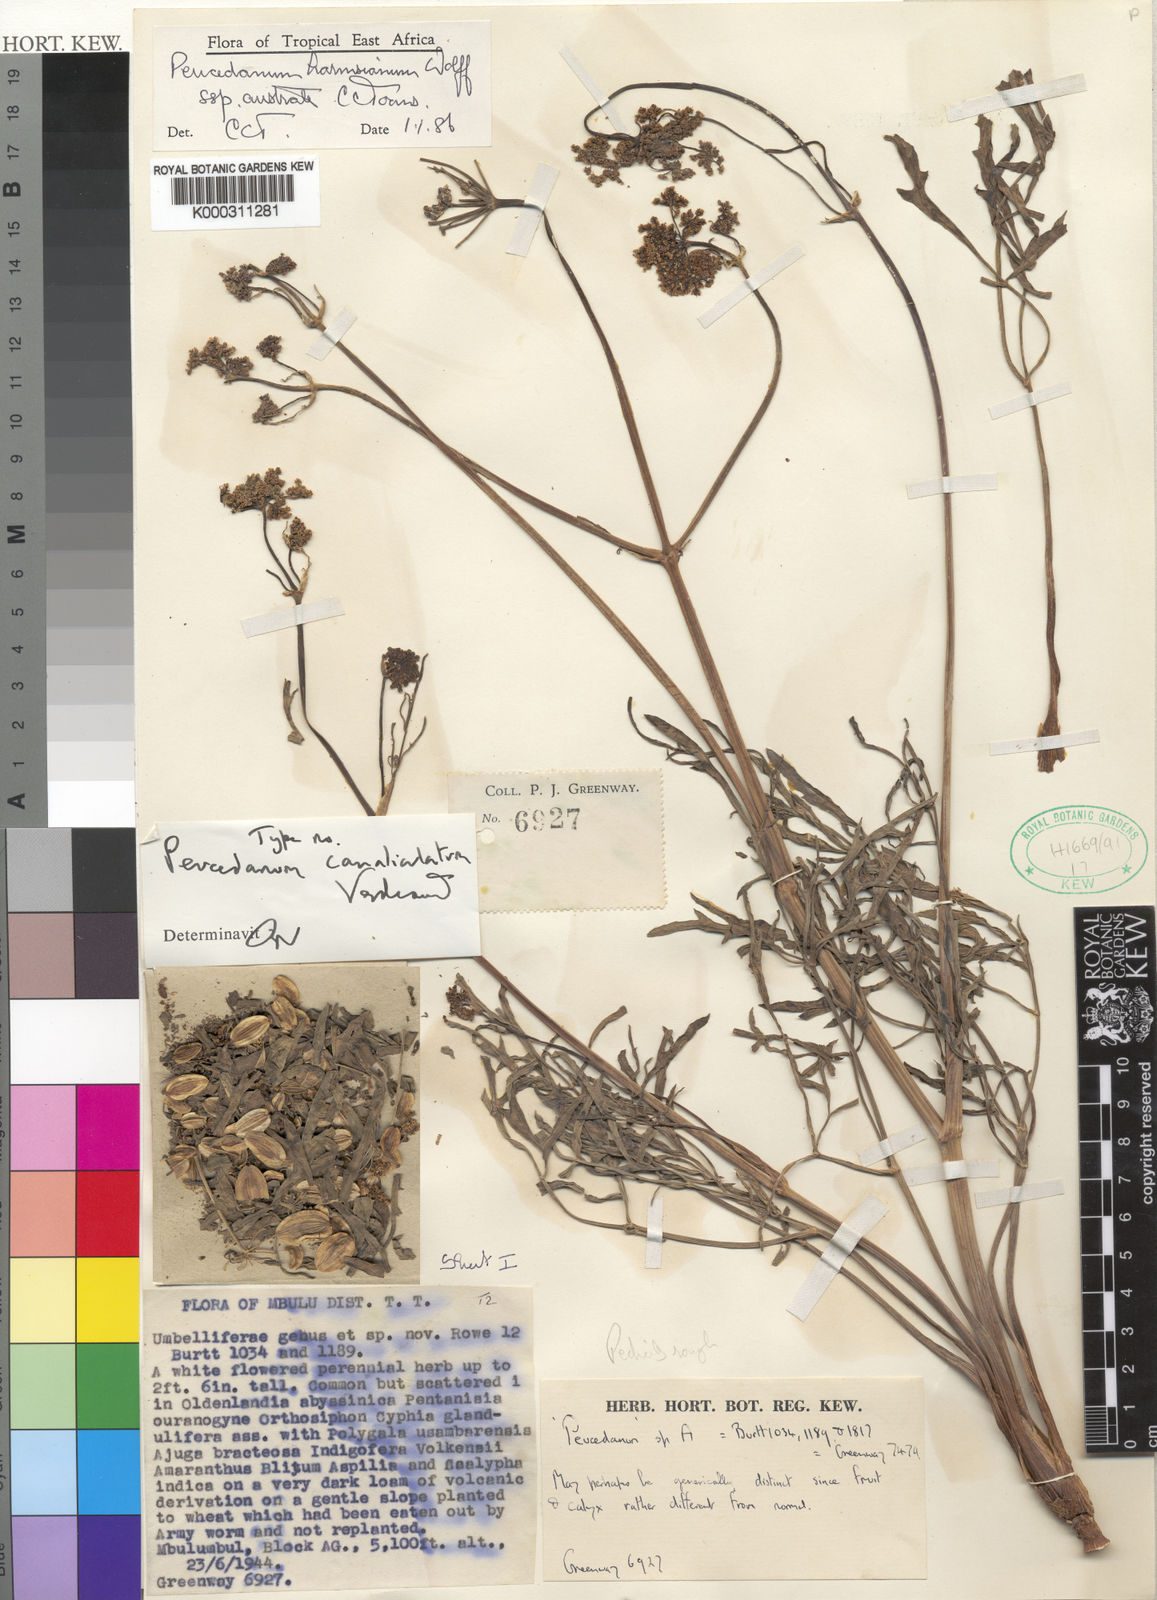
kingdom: Plantae
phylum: Tracheophyta
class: Magnoliopsida
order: Apiales
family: Apiaceae
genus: Afrosciadium
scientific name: Afrosciadium harmsianum
